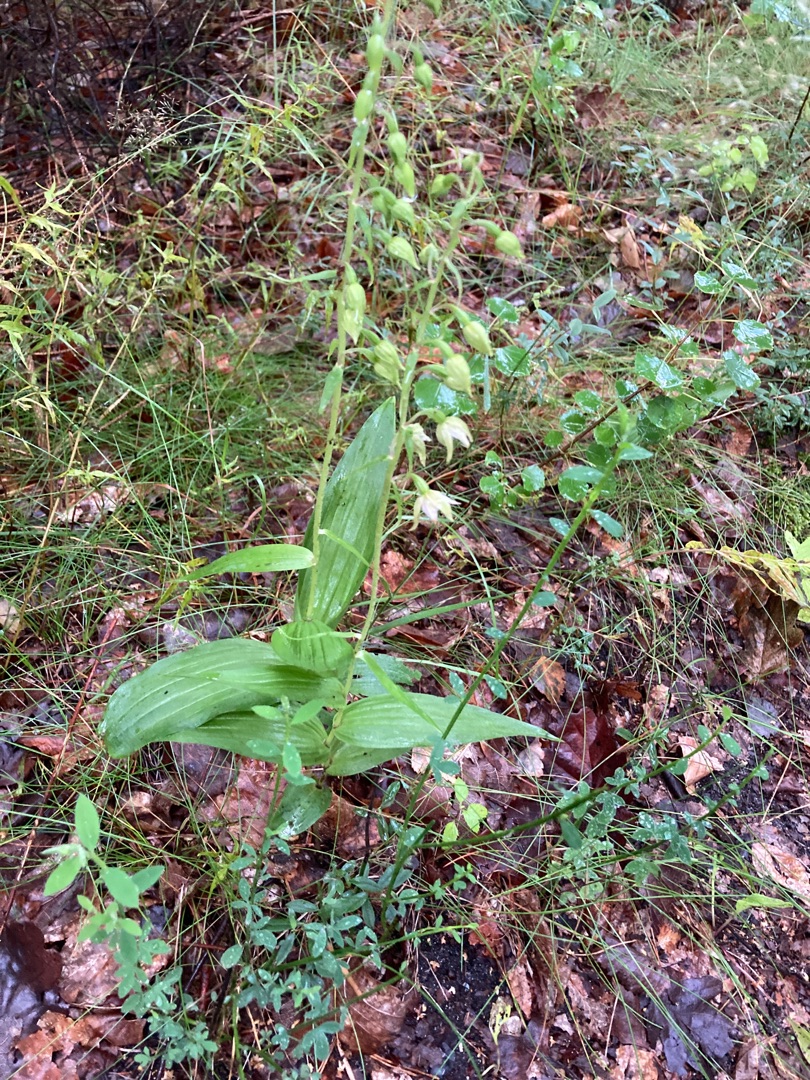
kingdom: Plantae
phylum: Tracheophyta
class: Liliopsida
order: Asparagales
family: Orchidaceae
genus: Epipactis
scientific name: Epipactis helleborine
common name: Skov-hullæbe
